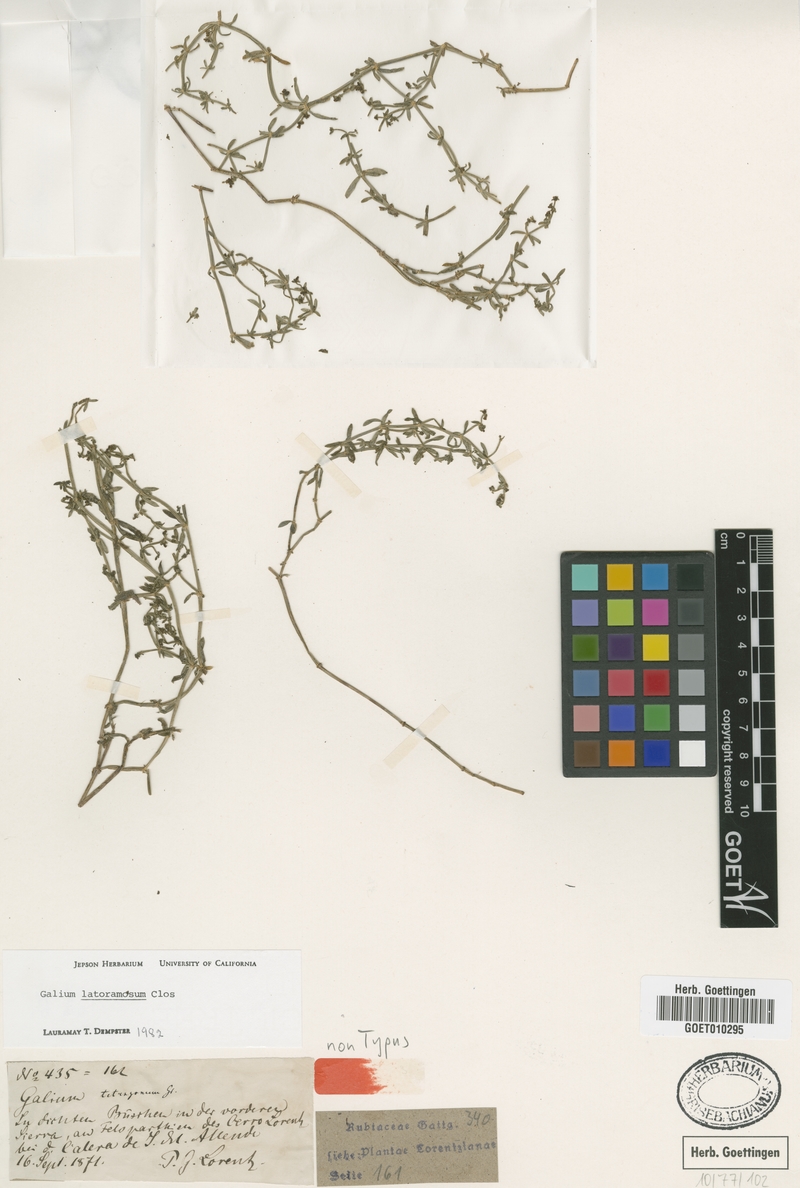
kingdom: Plantae
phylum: Tracheophyta
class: Magnoliopsida
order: Gentianales
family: Rubiaceae
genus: Galium
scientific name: Galium latoramosum
